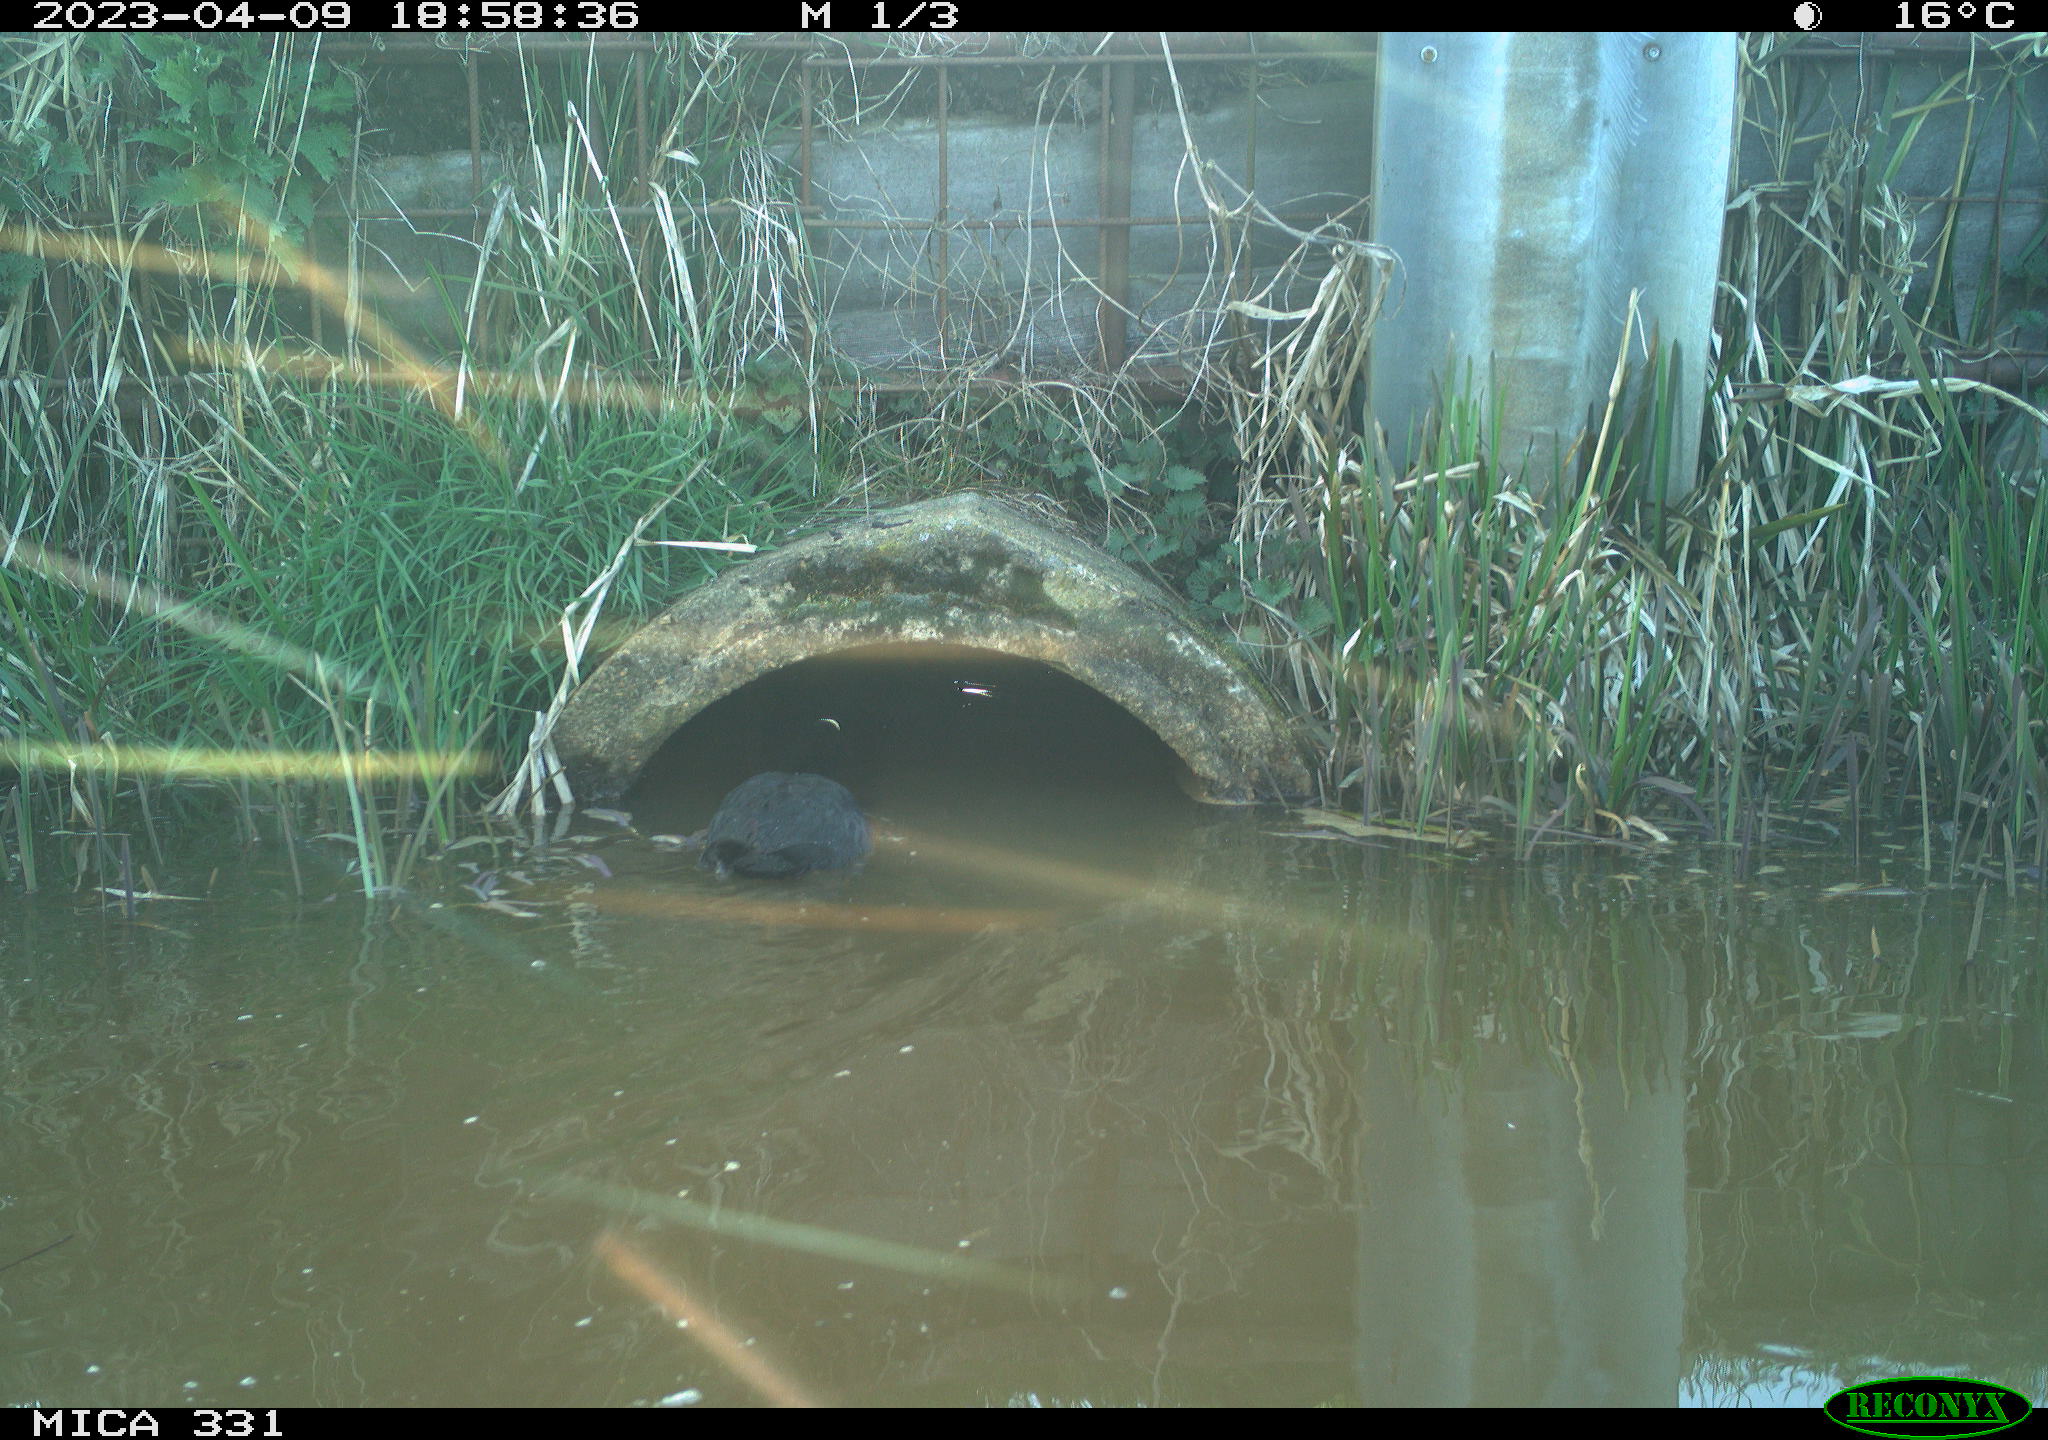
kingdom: Animalia
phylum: Chordata
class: Aves
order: Gruiformes
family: Rallidae
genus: Fulica
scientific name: Fulica atra
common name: Eurasian coot
